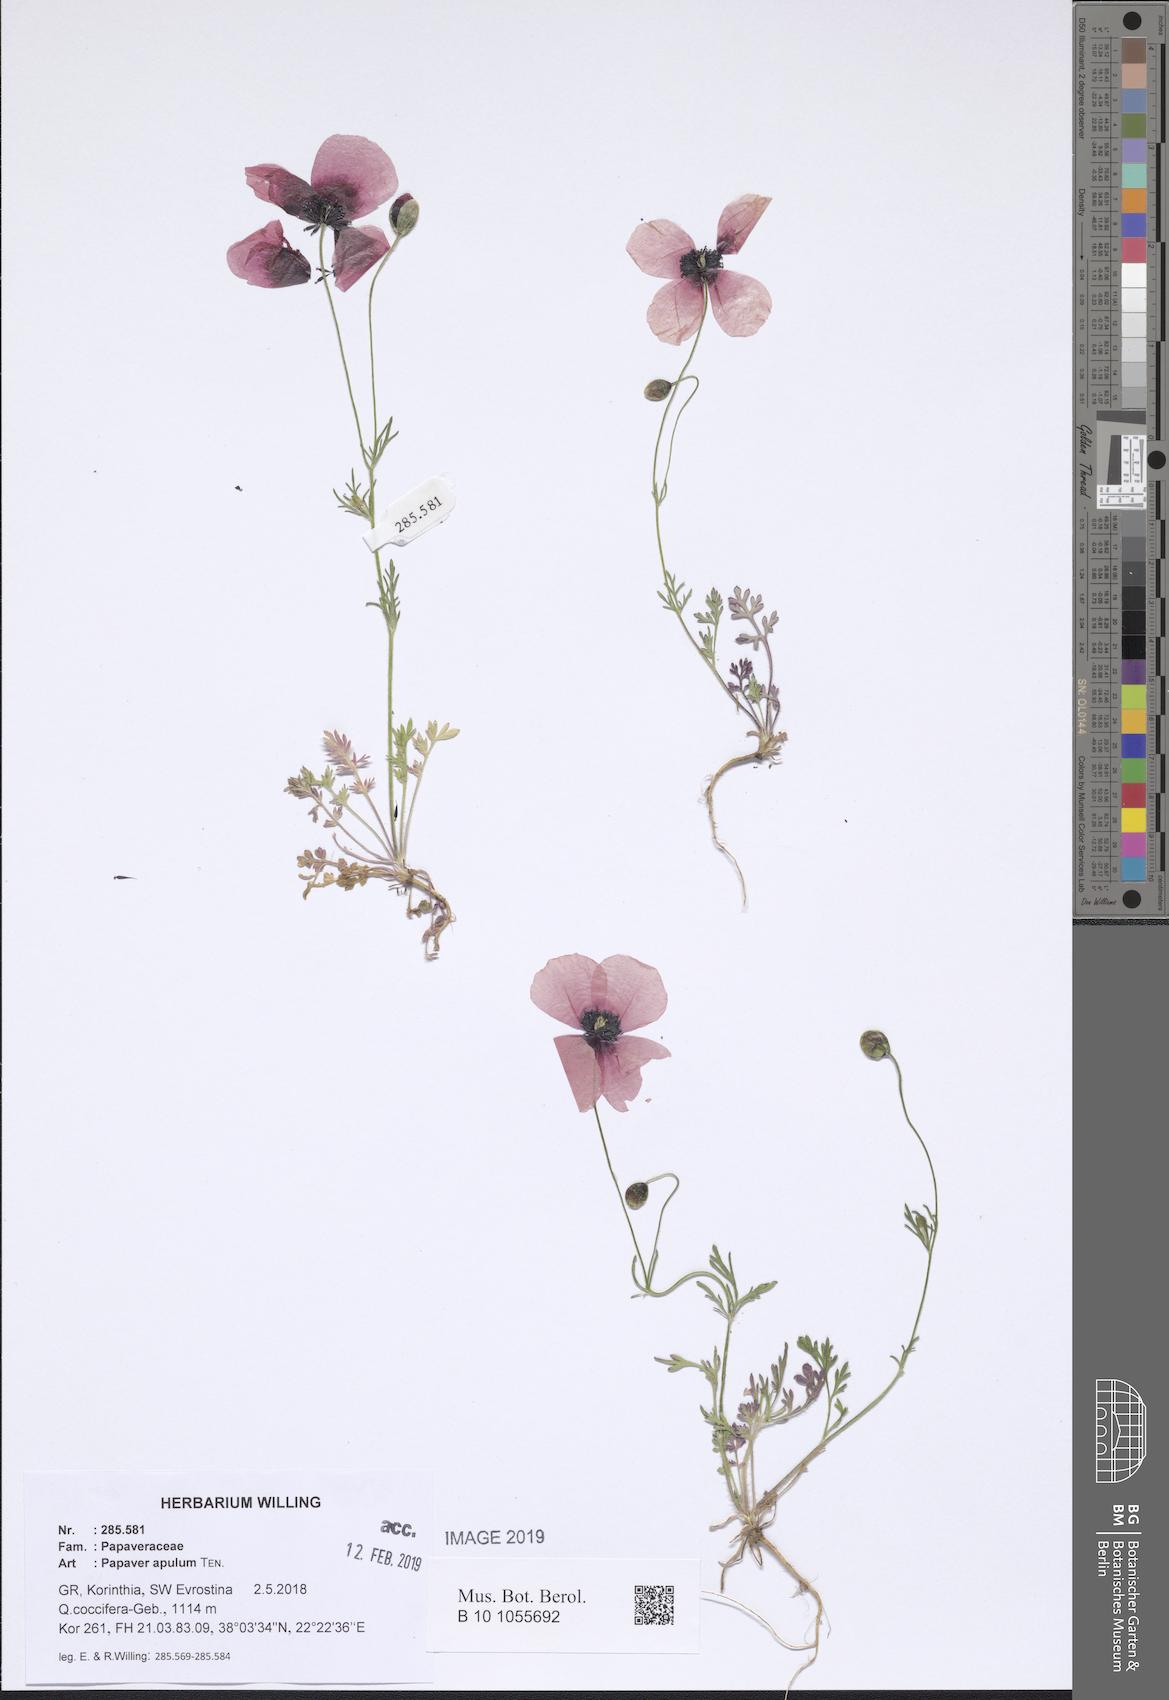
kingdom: Plantae
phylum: Tracheophyta
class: Magnoliopsida
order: Ranunculales
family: Papaveraceae
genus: Roemeria
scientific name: Roemeria apula
